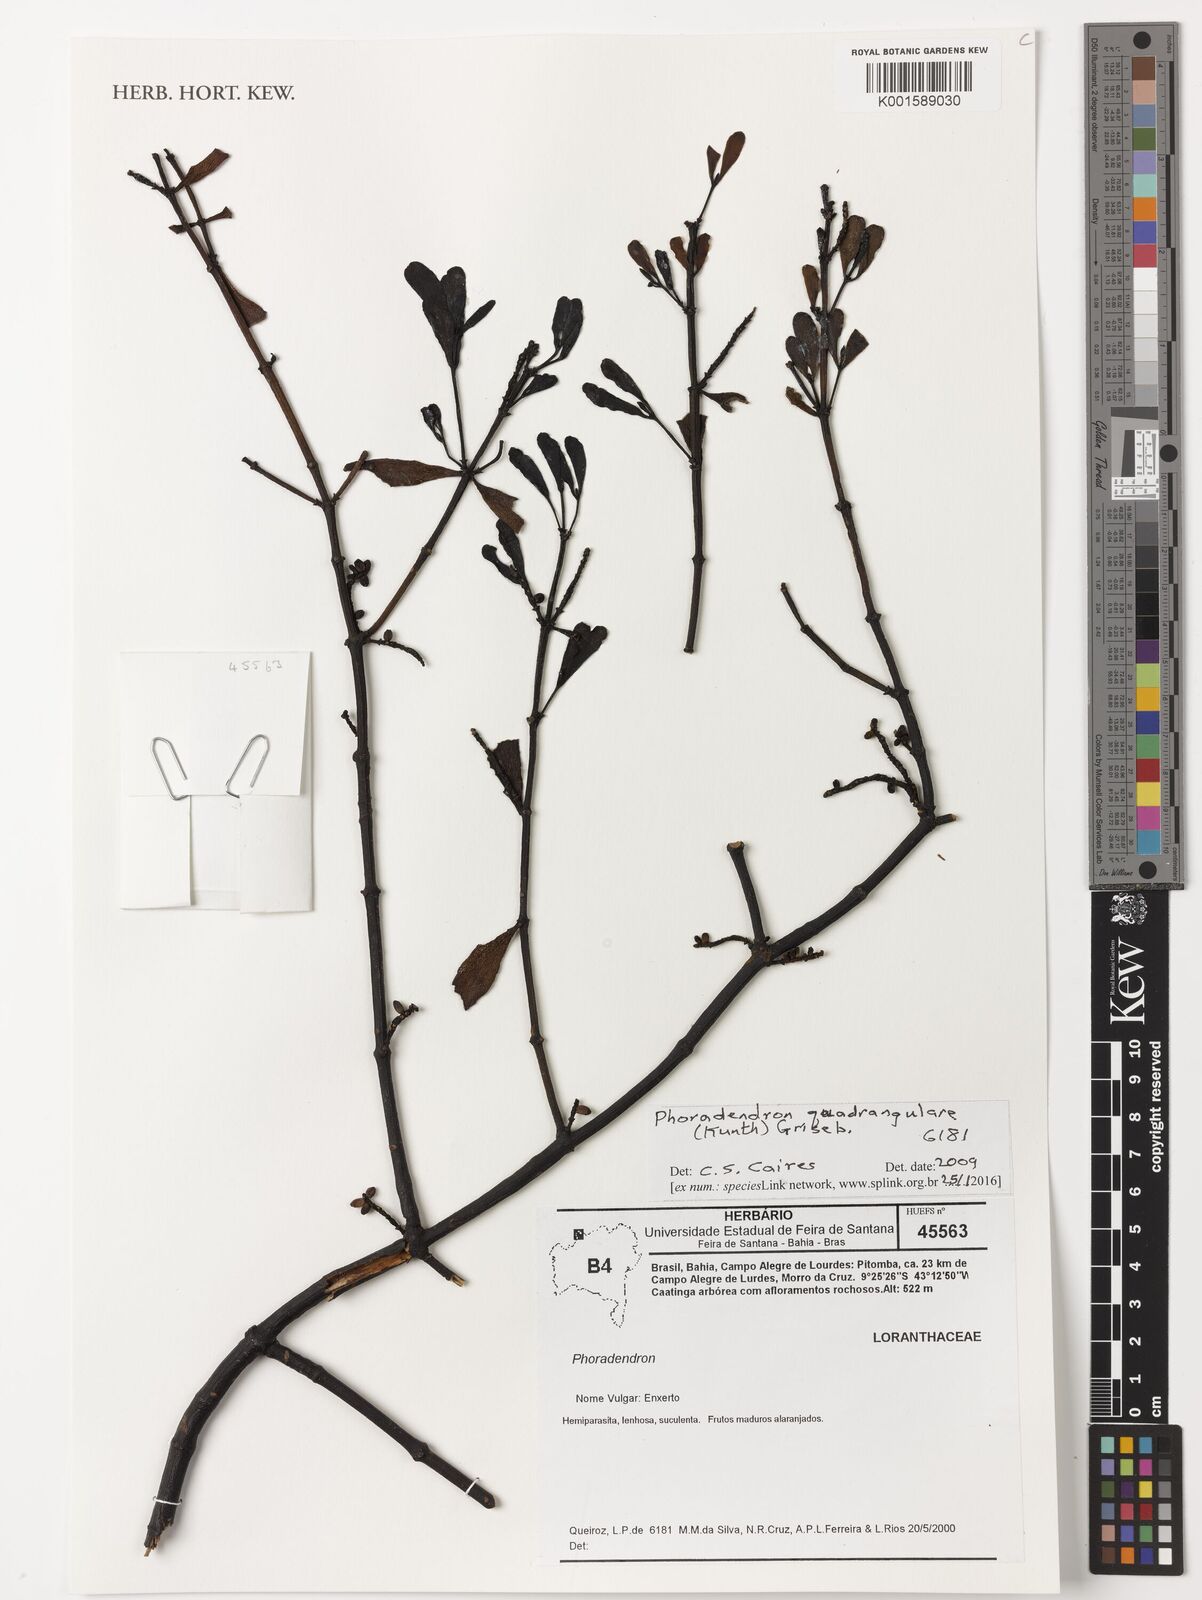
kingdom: Plantae
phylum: Tracheophyta
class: Magnoliopsida
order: Santalales
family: Viscaceae
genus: Phoradendron
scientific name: Phoradendron quadrangulare
